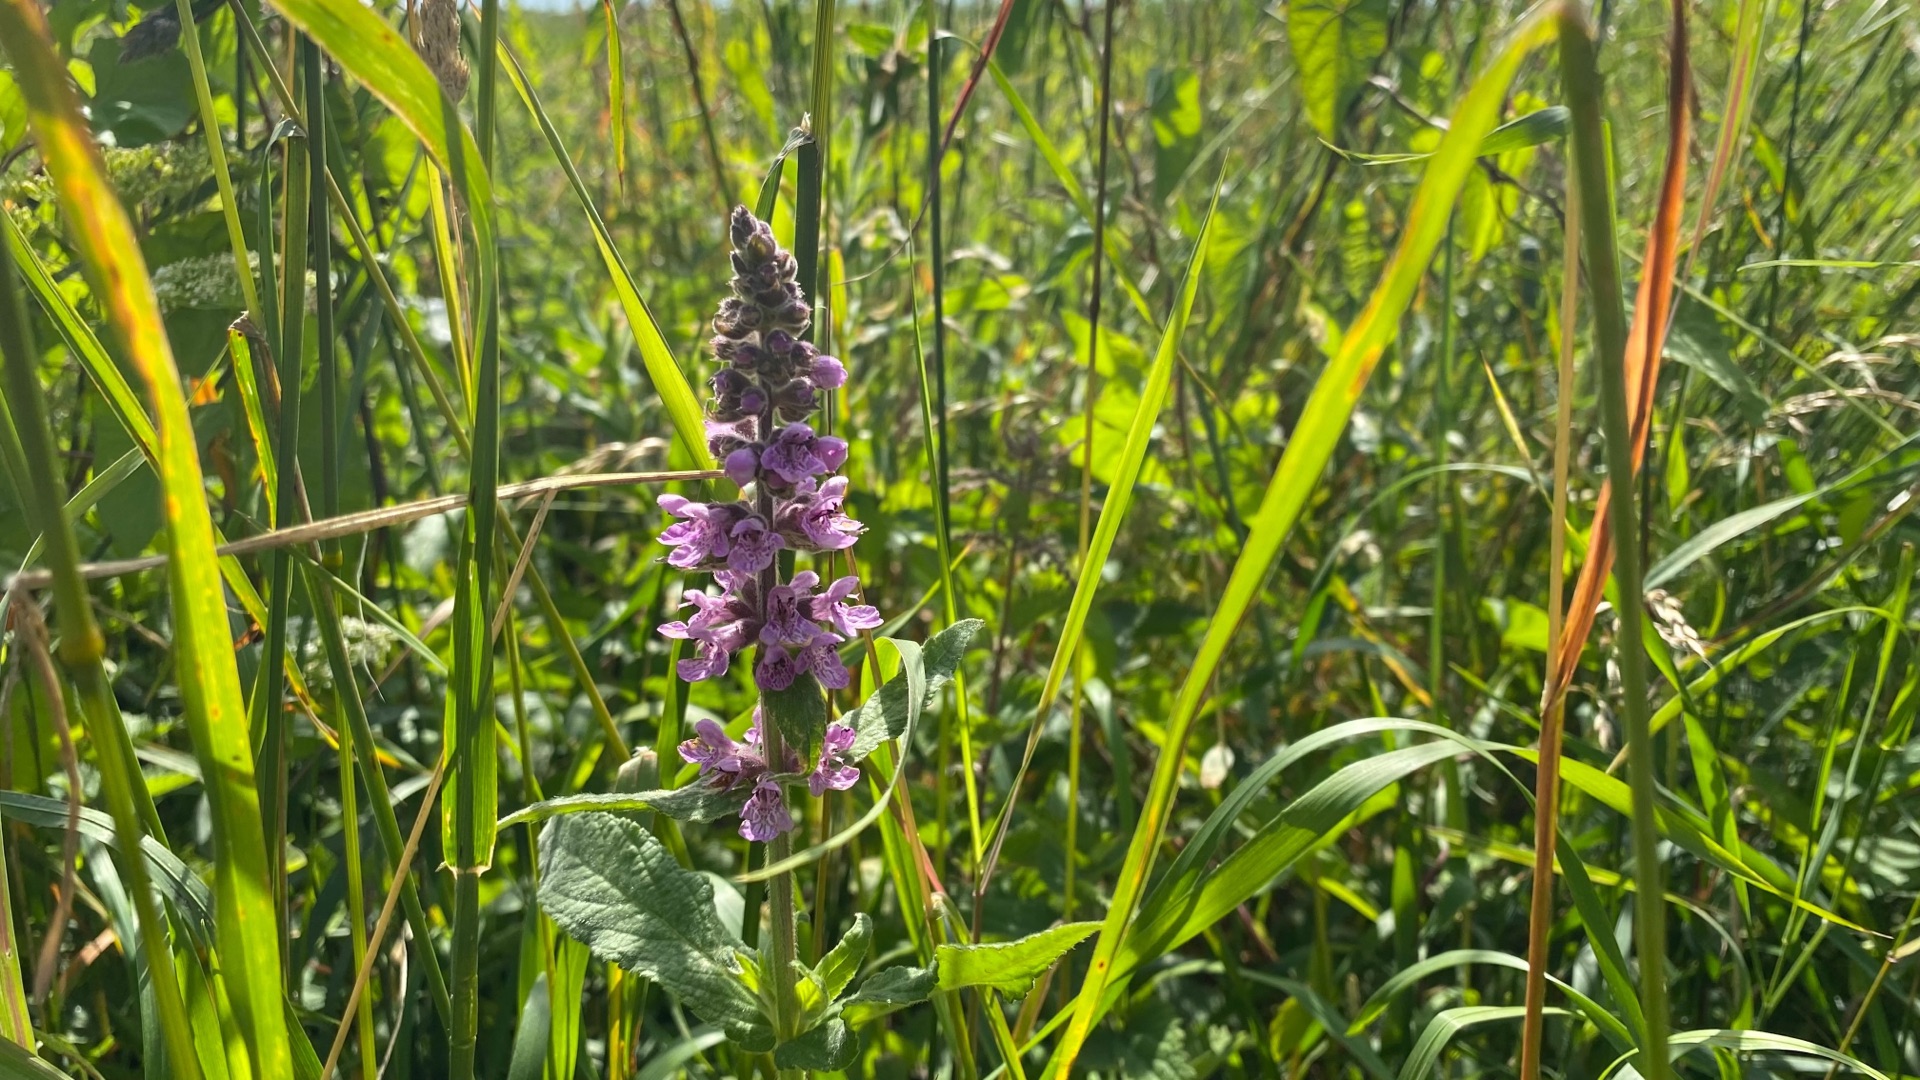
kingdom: Plantae
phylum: Tracheophyta
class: Magnoliopsida
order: Lamiales
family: Lamiaceae
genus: Stachys
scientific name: Stachys palustris
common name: Kær-galtetand
